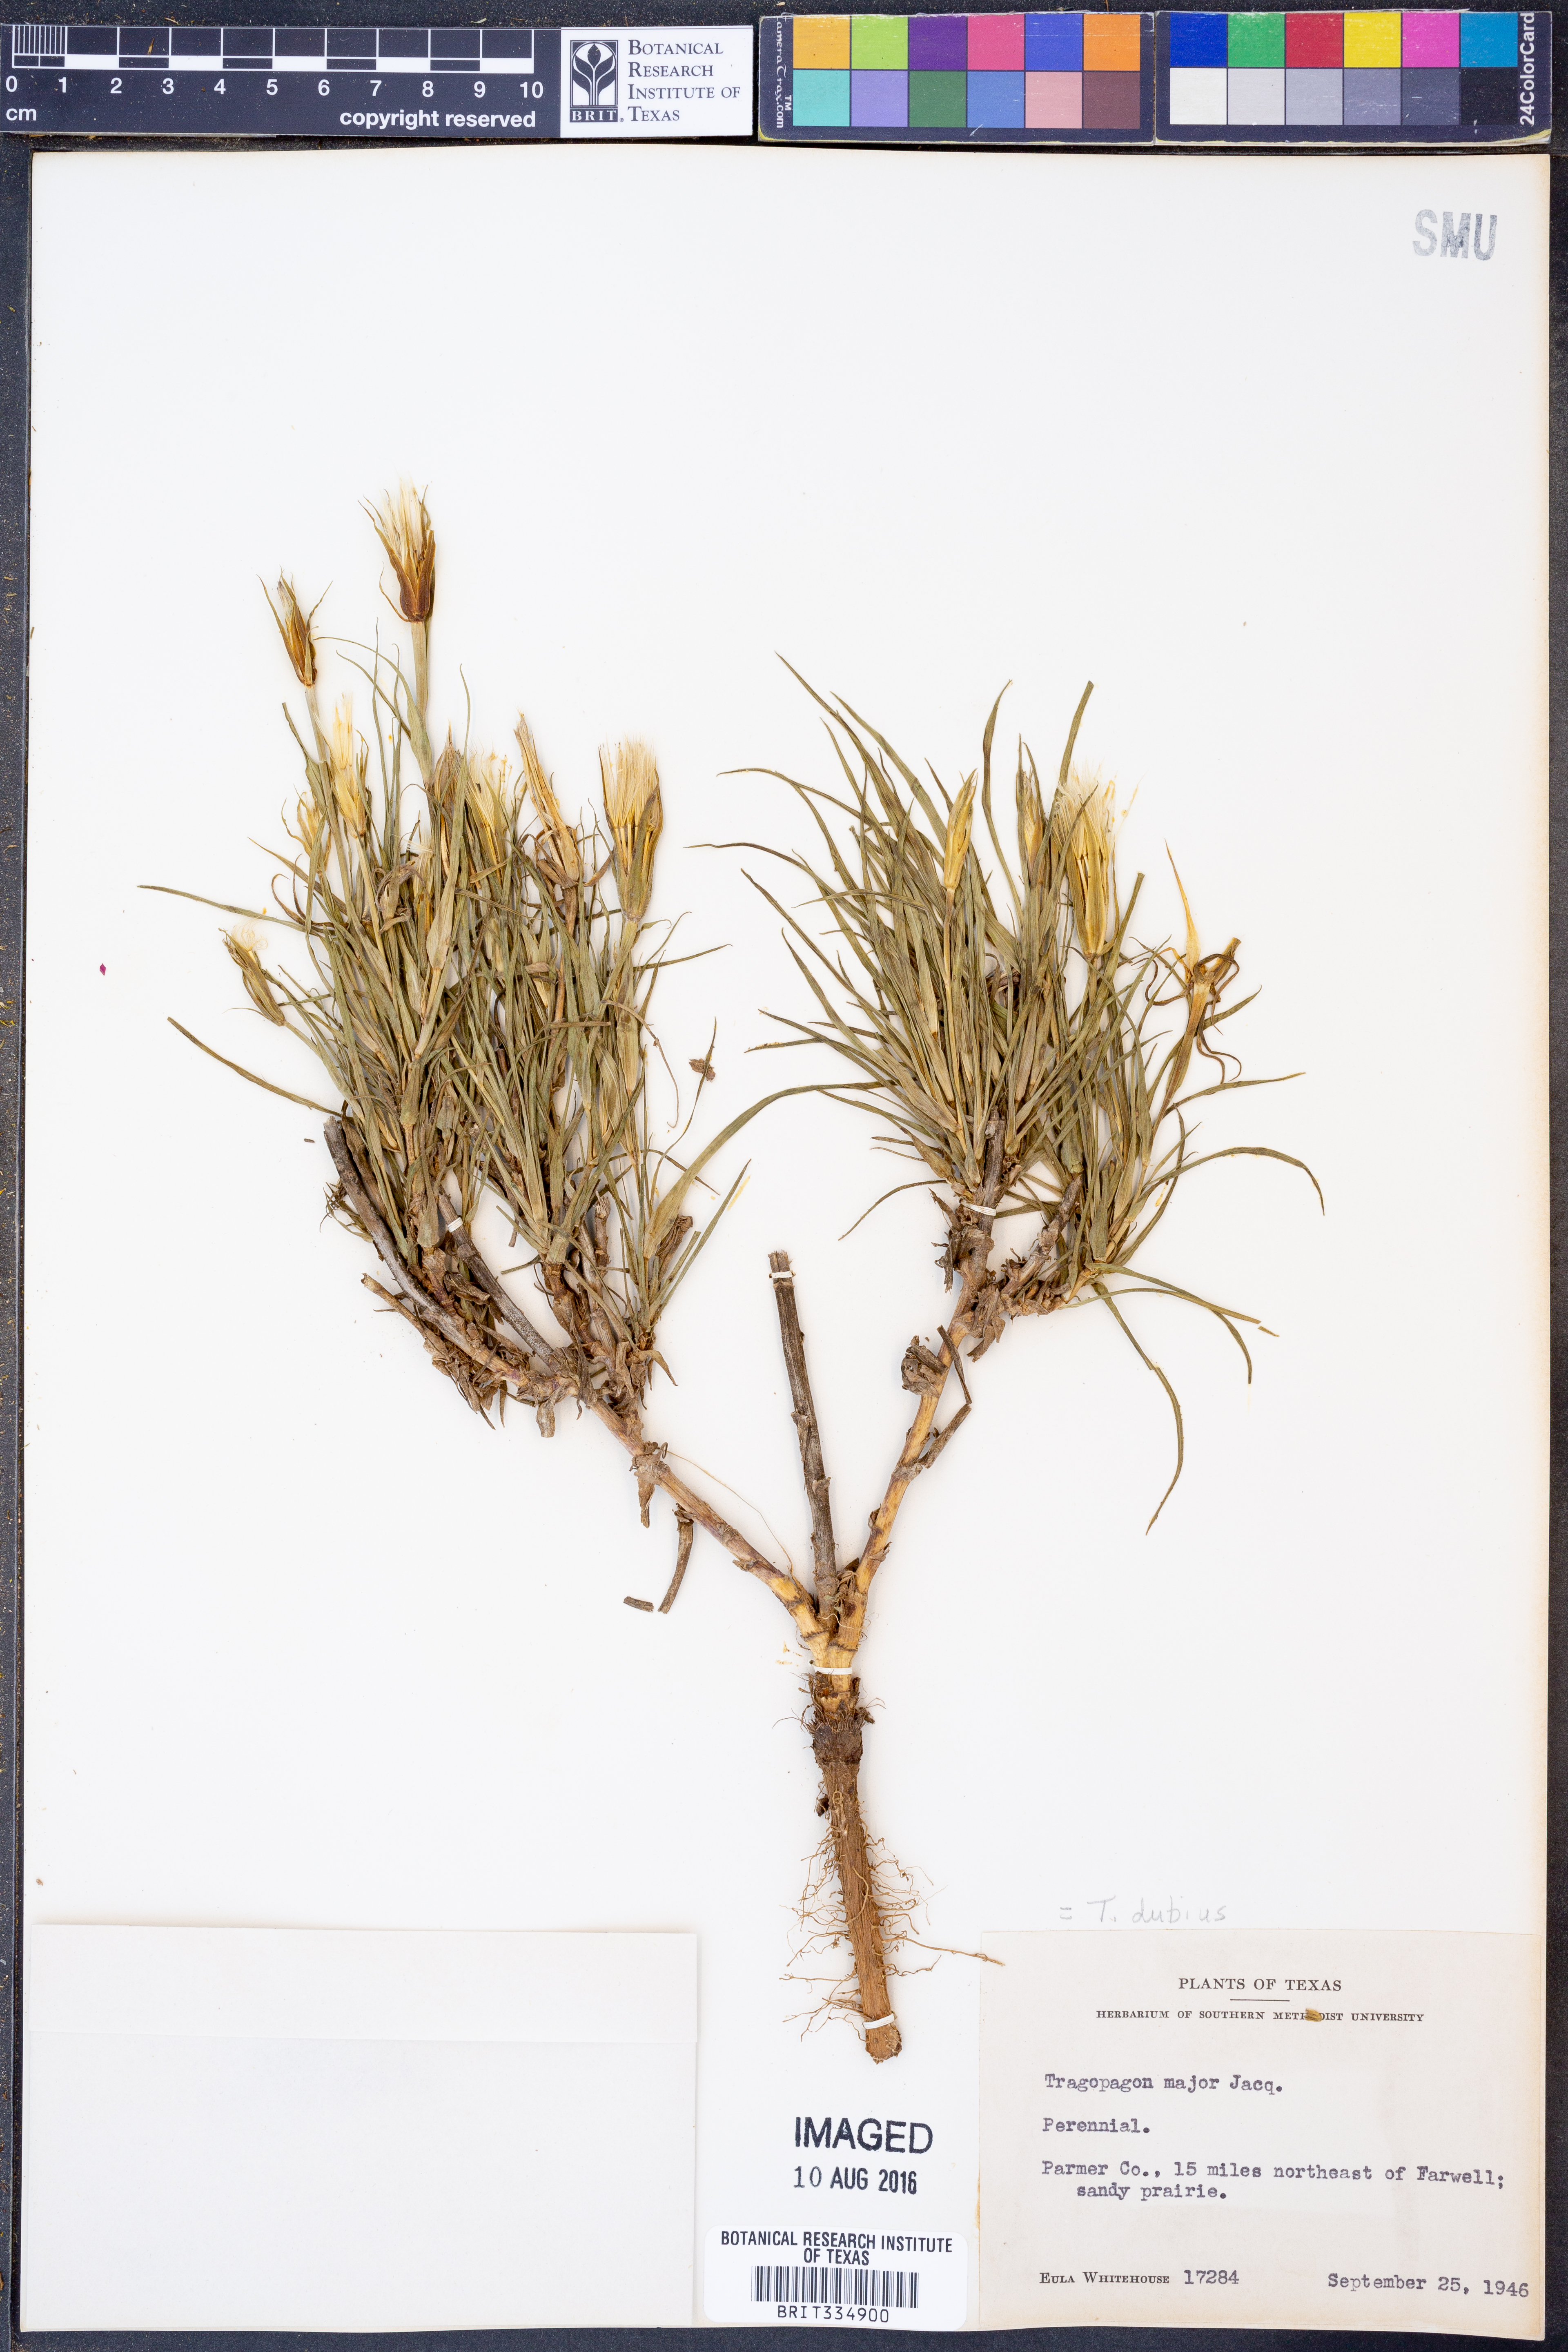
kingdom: Plantae
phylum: Tracheophyta
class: Magnoliopsida
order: Asterales
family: Asteraceae
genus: Tragopogon
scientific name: Tragopogon dubius
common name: Yellow salsify
